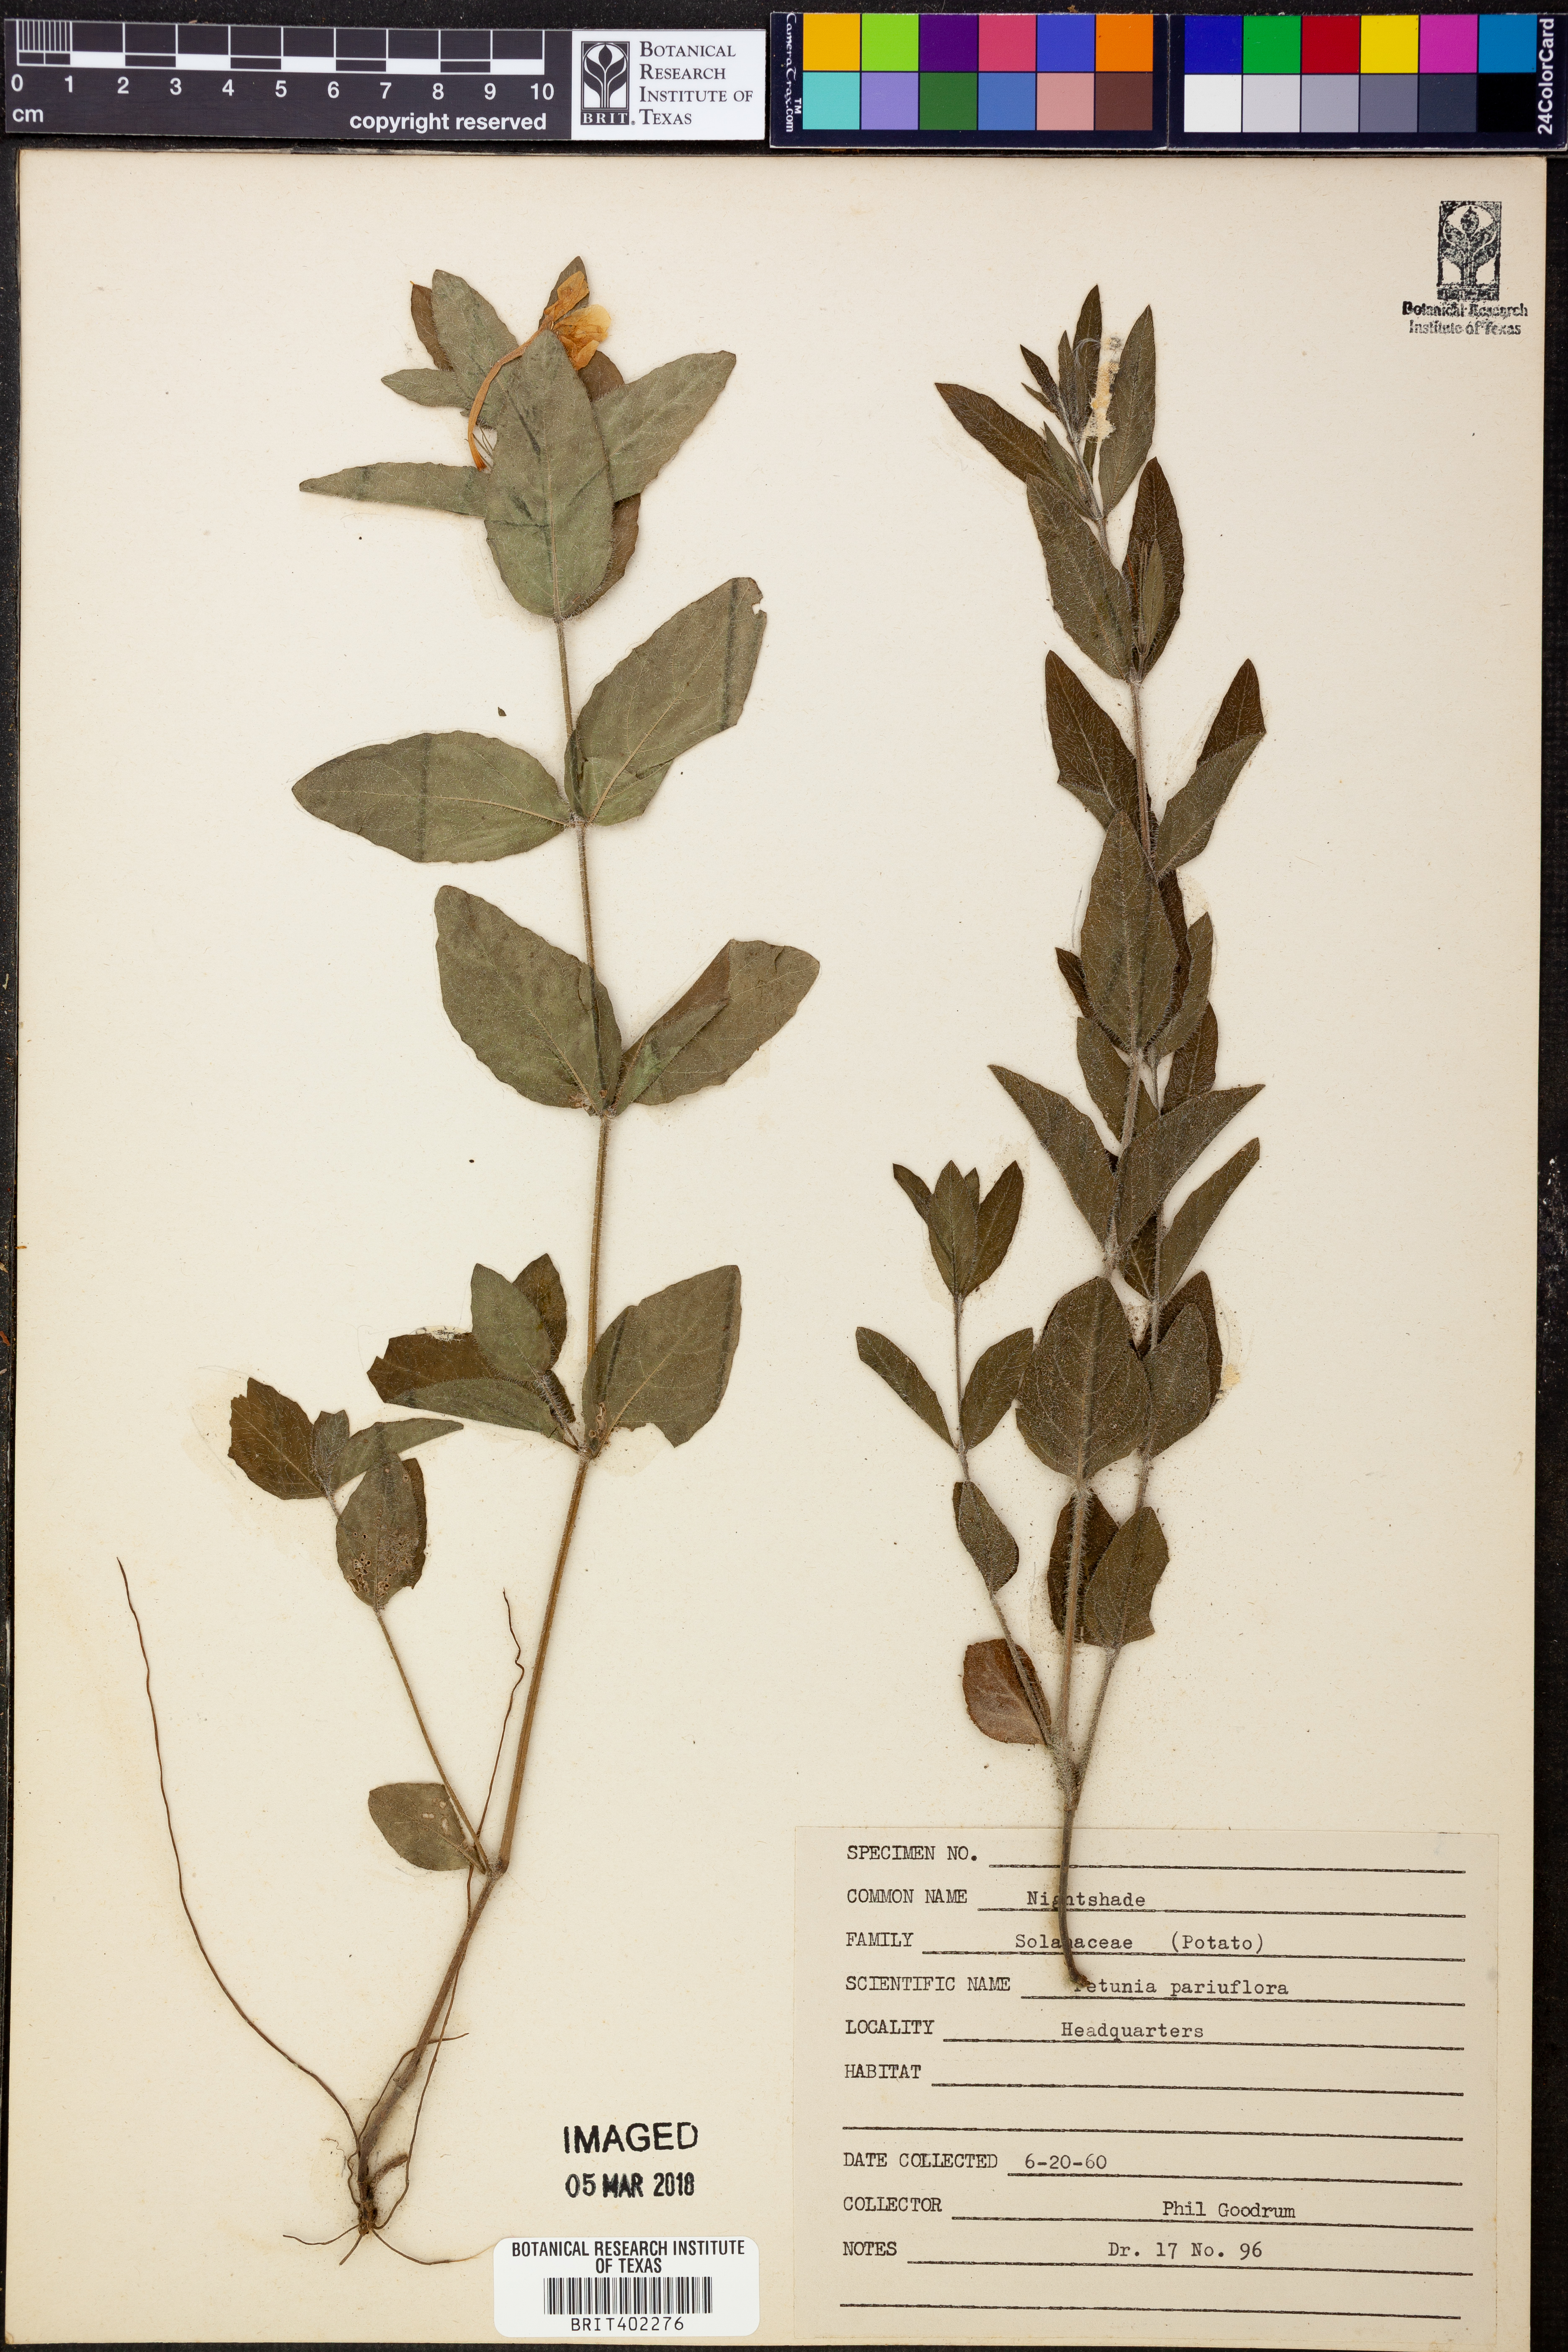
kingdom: Plantae
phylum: Tracheophyta
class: Magnoliopsida
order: Solanales
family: Solanaceae
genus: Calibrachoa
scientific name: Calibrachoa parviflora
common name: Seaside petunia
